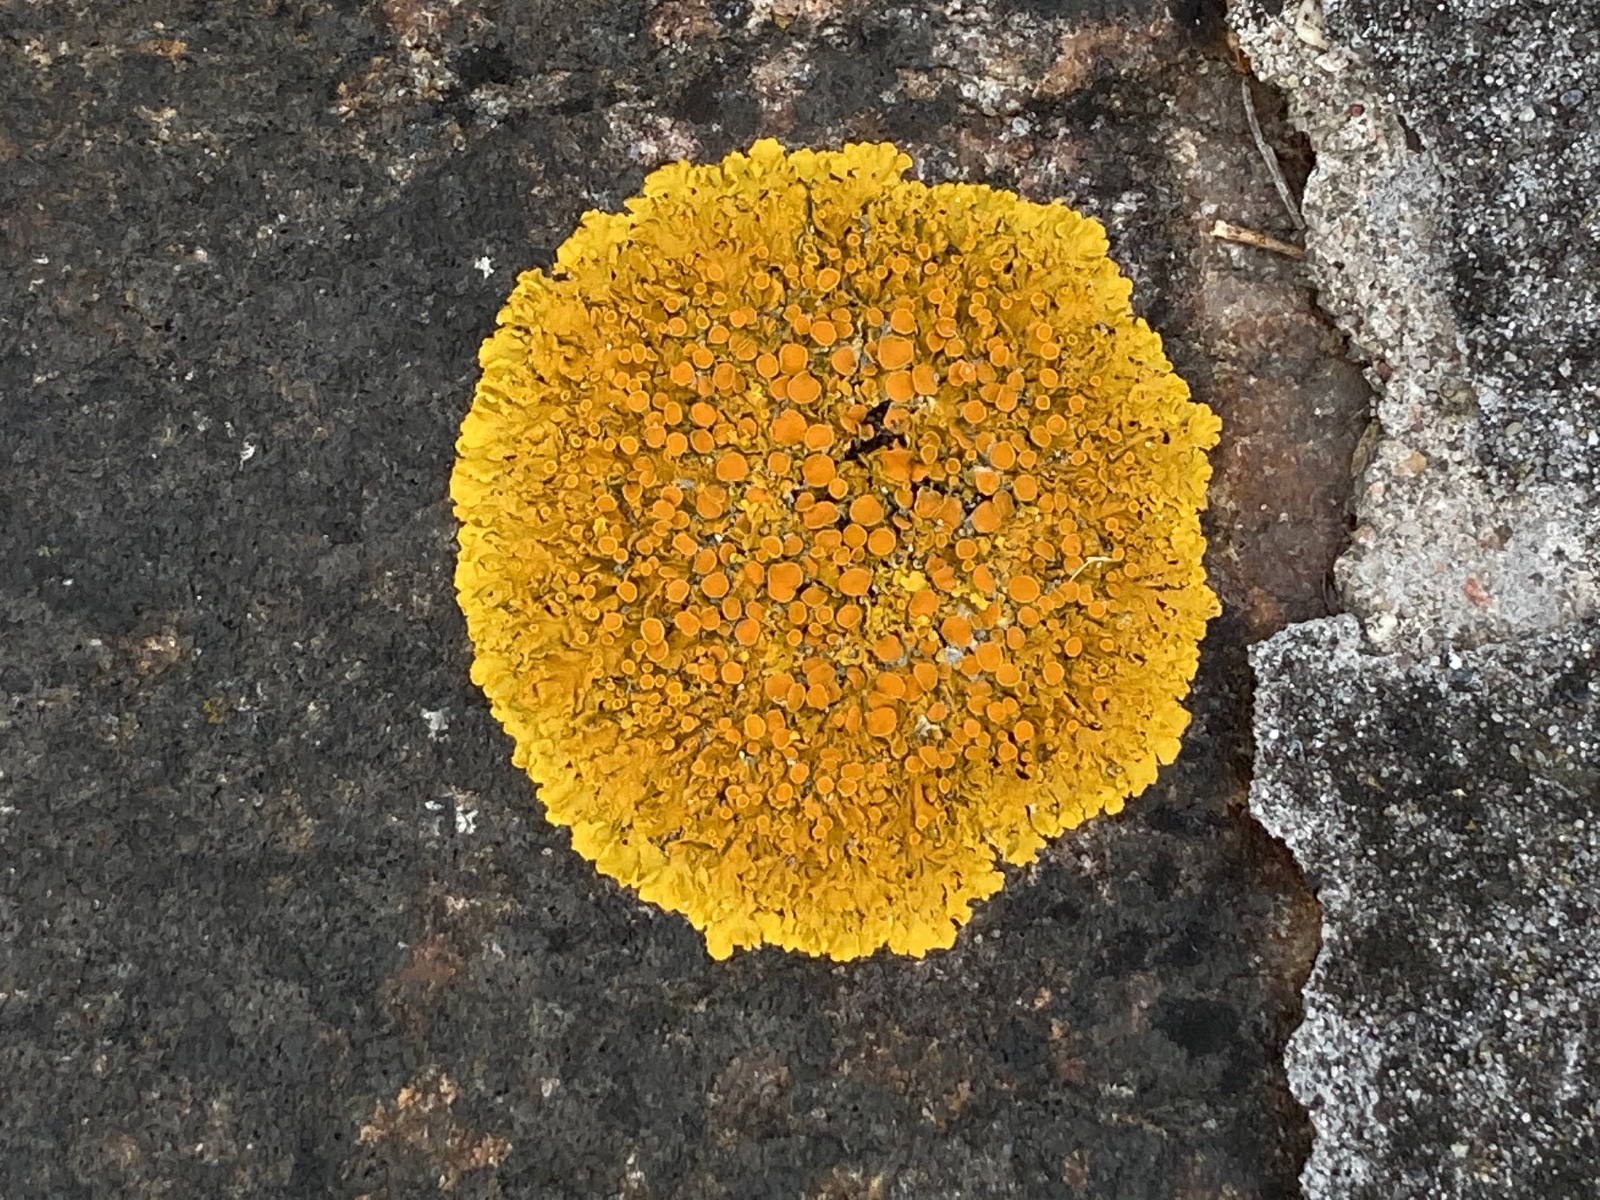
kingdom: Fungi
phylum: Ascomycota
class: Lecanoromycetes
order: Teloschistales
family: Teloschistaceae
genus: Xanthoria
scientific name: Xanthoria parietina
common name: almindelig væggelav
